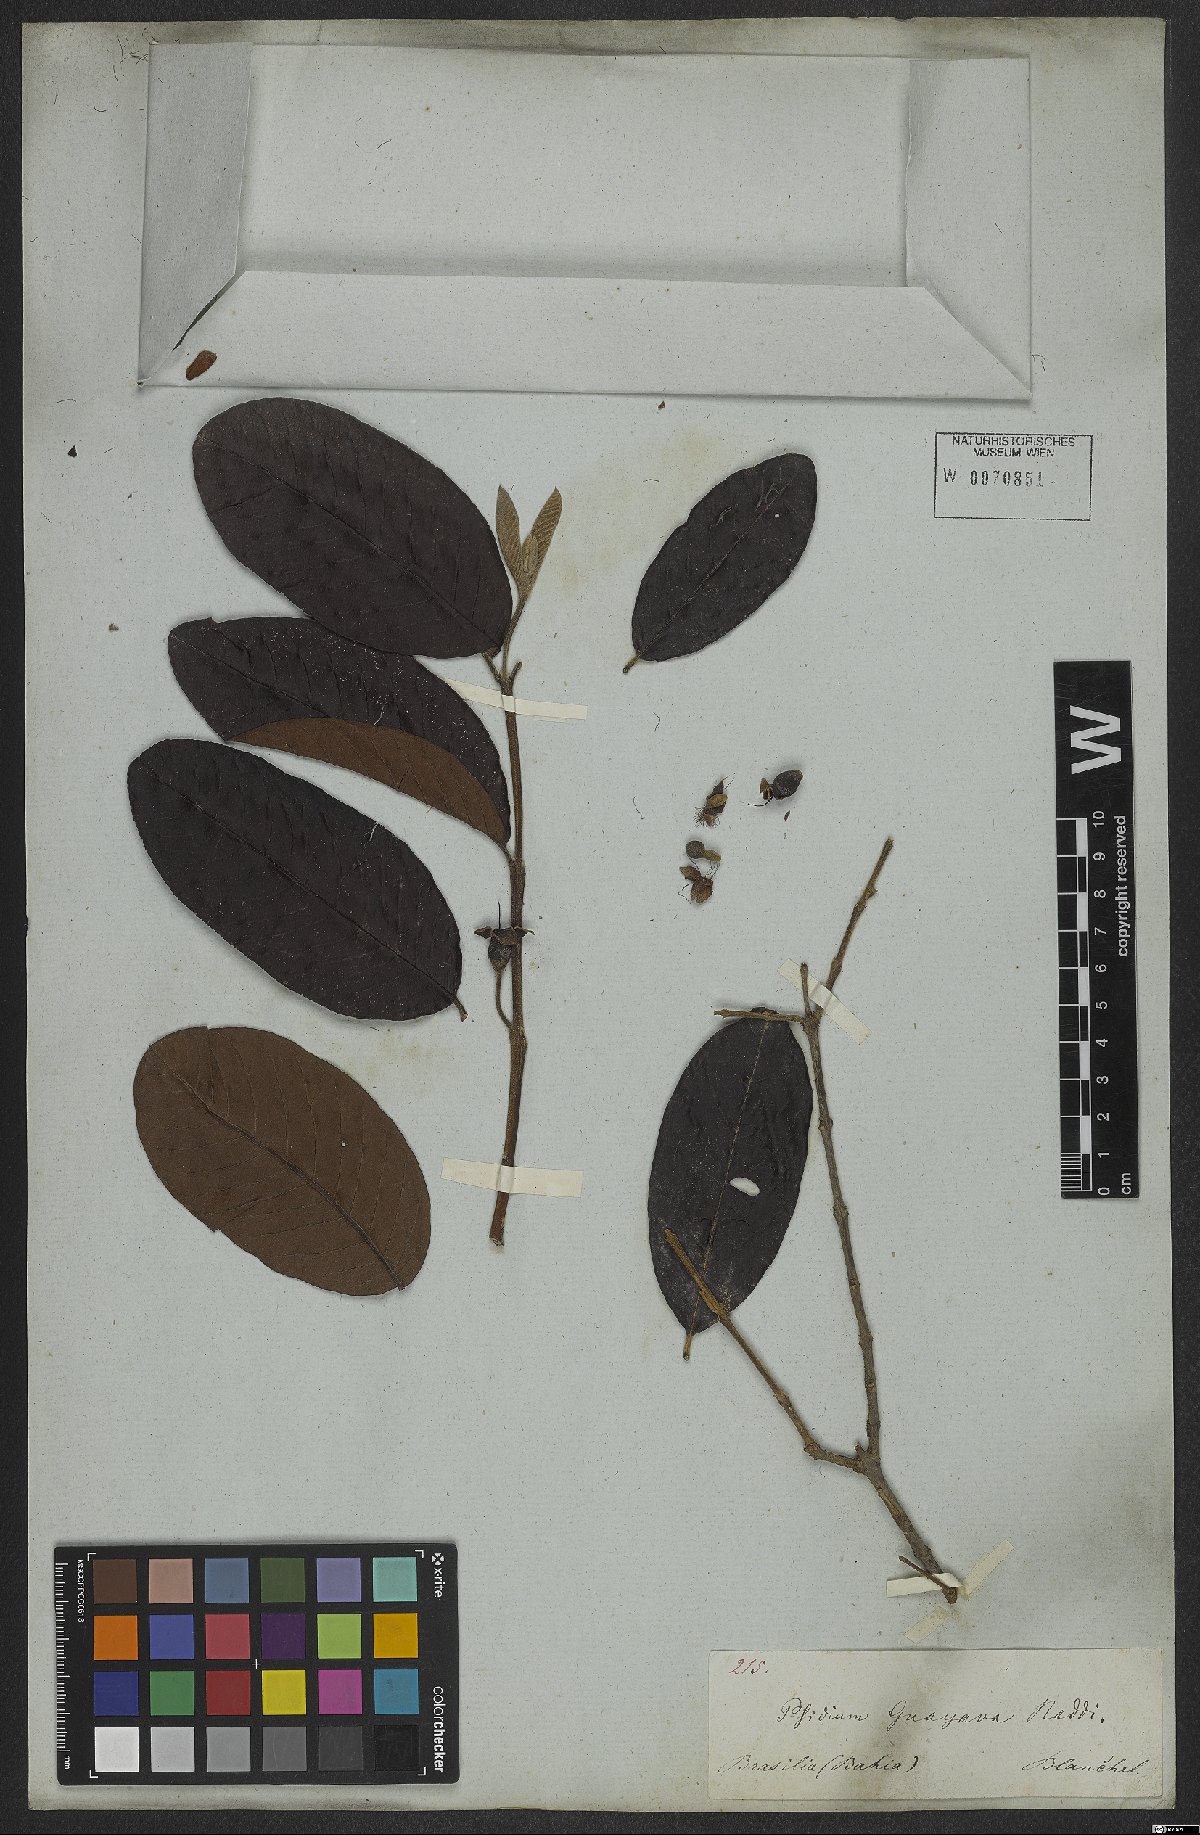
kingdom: Plantae
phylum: Tracheophyta
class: Magnoliopsida
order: Myrtales
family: Myrtaceae
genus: Psidium
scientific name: Psidium guajava
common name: Guava
